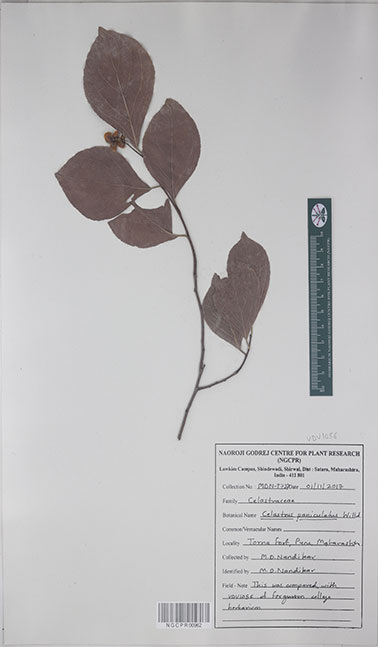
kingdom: Plantae
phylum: Tracheophyta
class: Magnoliopsida
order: Celastrales
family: Celastraceae
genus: Celastrus
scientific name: Celastrus paniculatus
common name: Oriental bittersweet; staff vine
